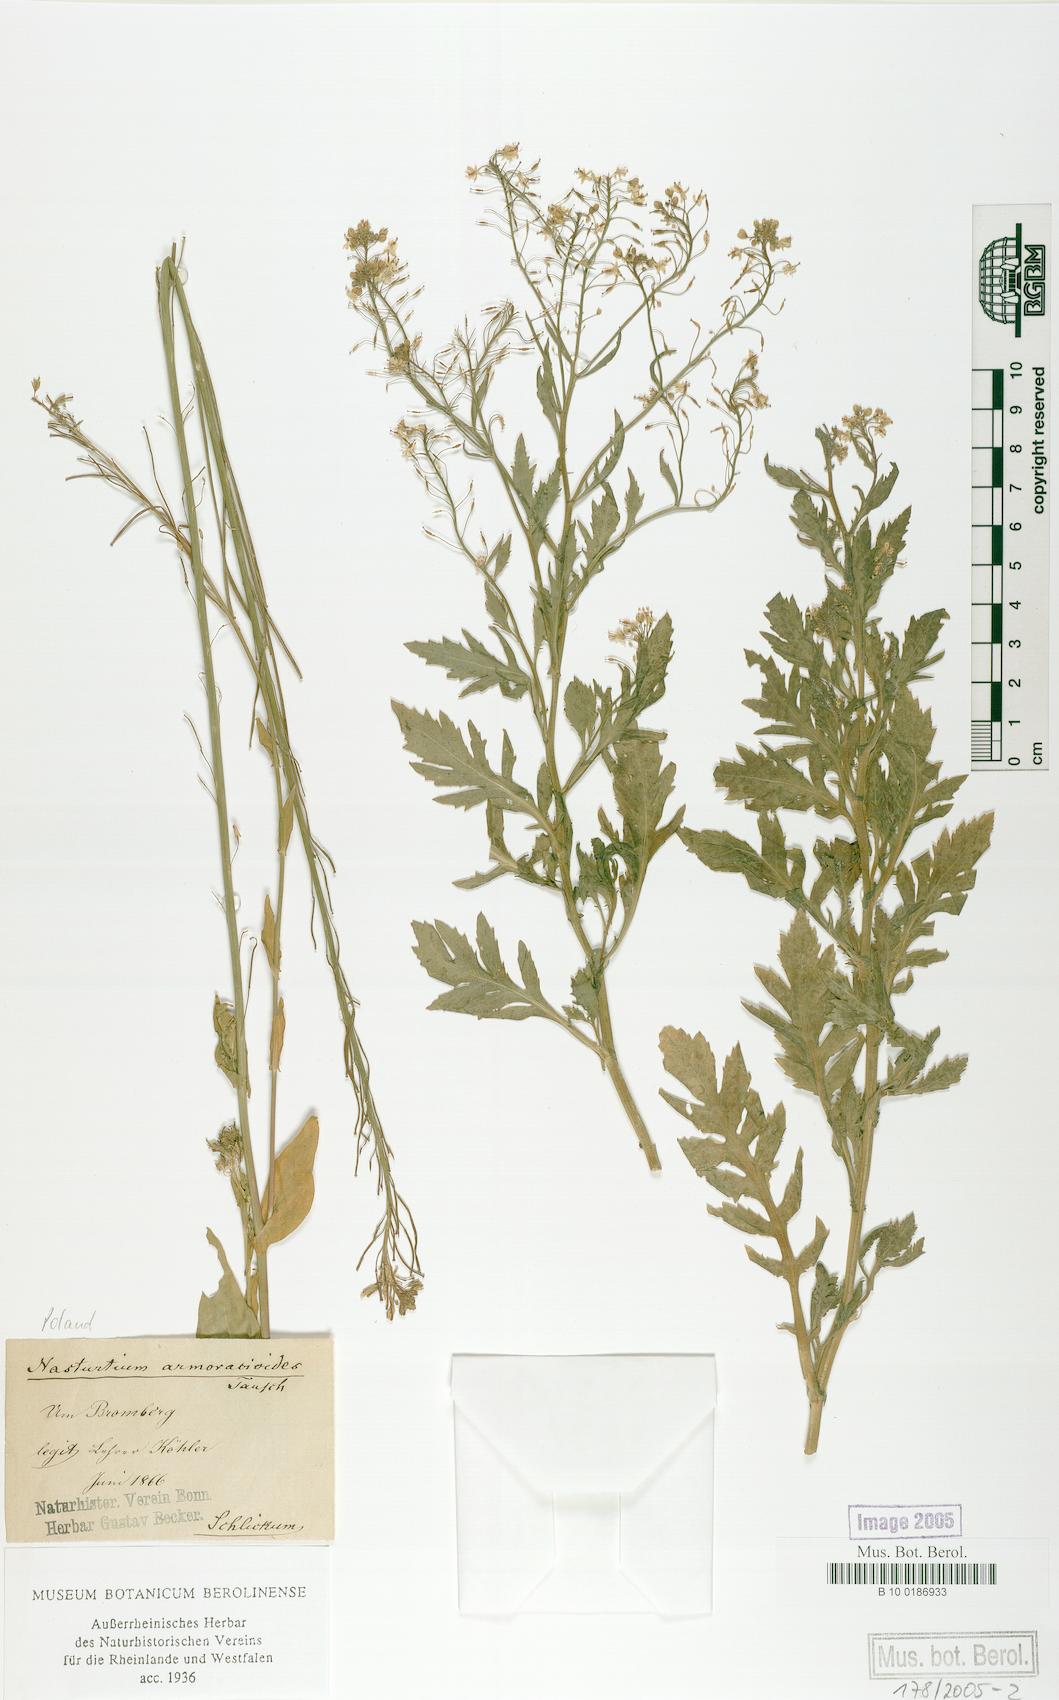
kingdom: Plantae
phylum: Tracheophyta
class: Magnoliopsida
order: Brassicales
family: Brassicaceae
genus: Rorippa
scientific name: Rorippa anceps
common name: Rorippa
